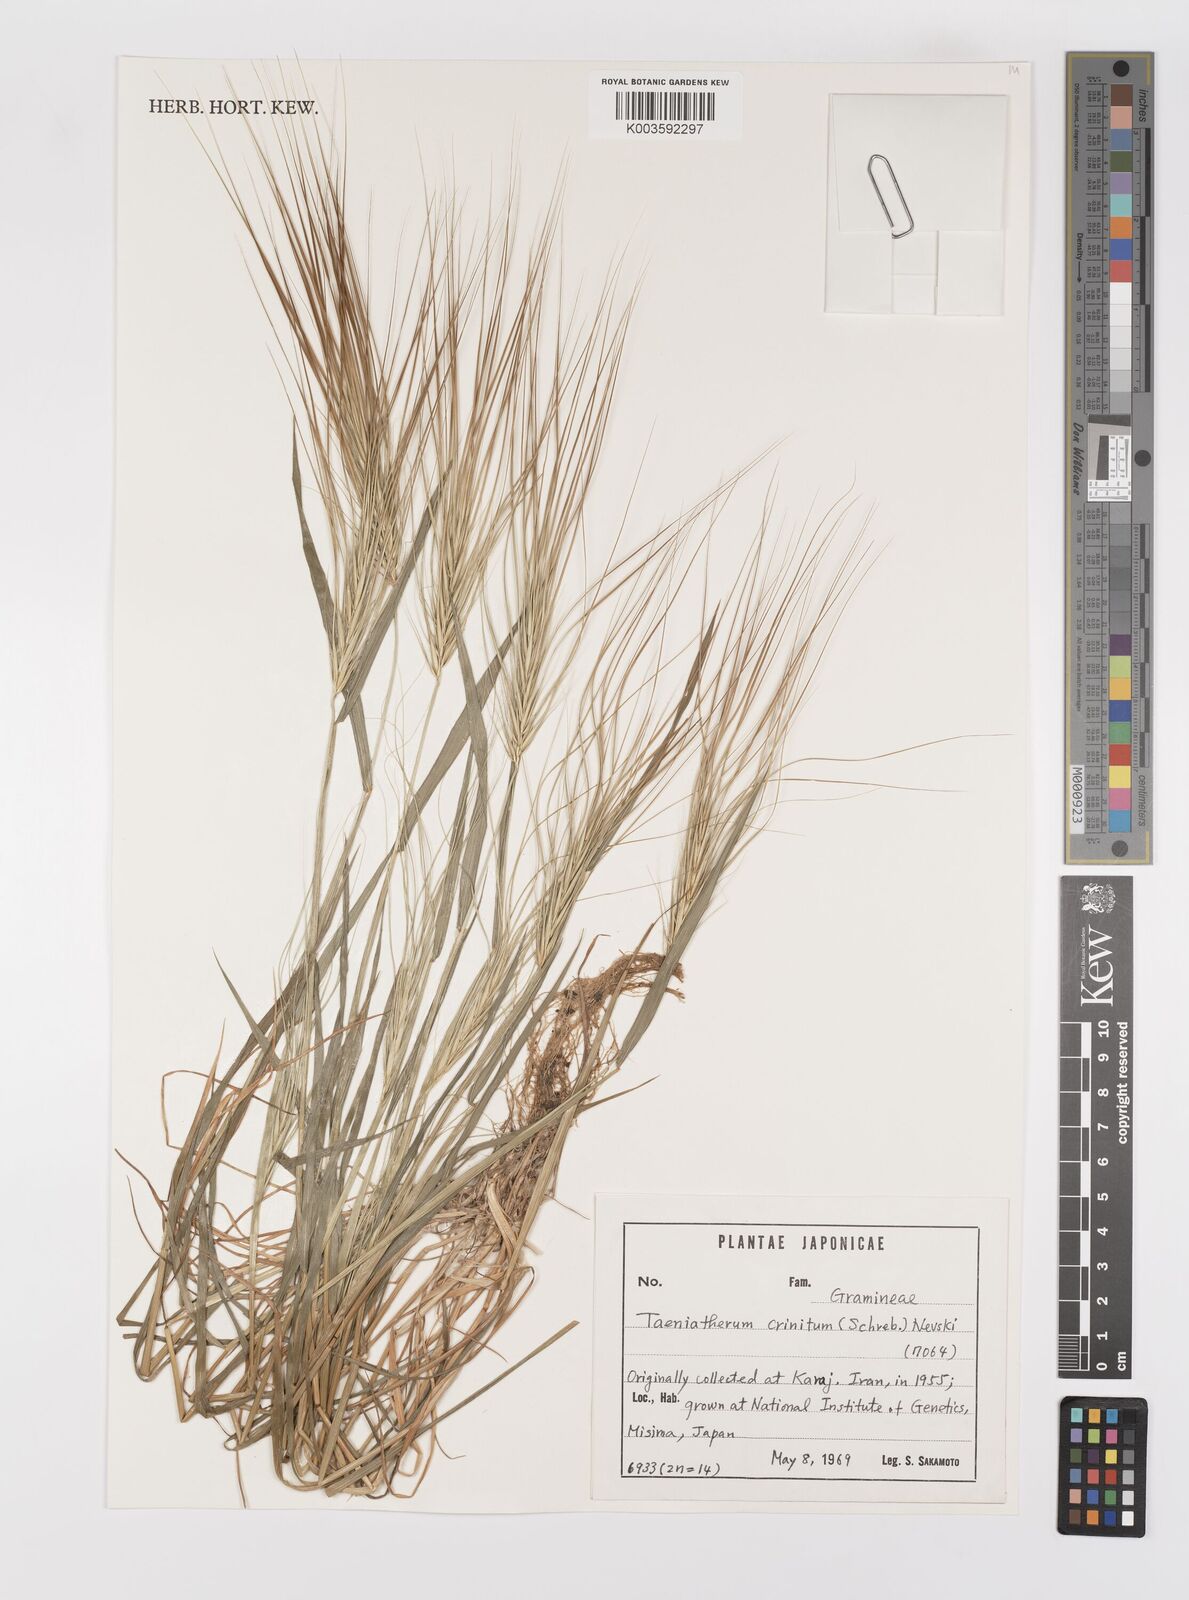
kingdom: Plantae
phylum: Tracheophyta
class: Liliopsida
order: Poales
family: Poaceae
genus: Taeniatherum
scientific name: Taeniatherum caput-medusae
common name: Medusahead
